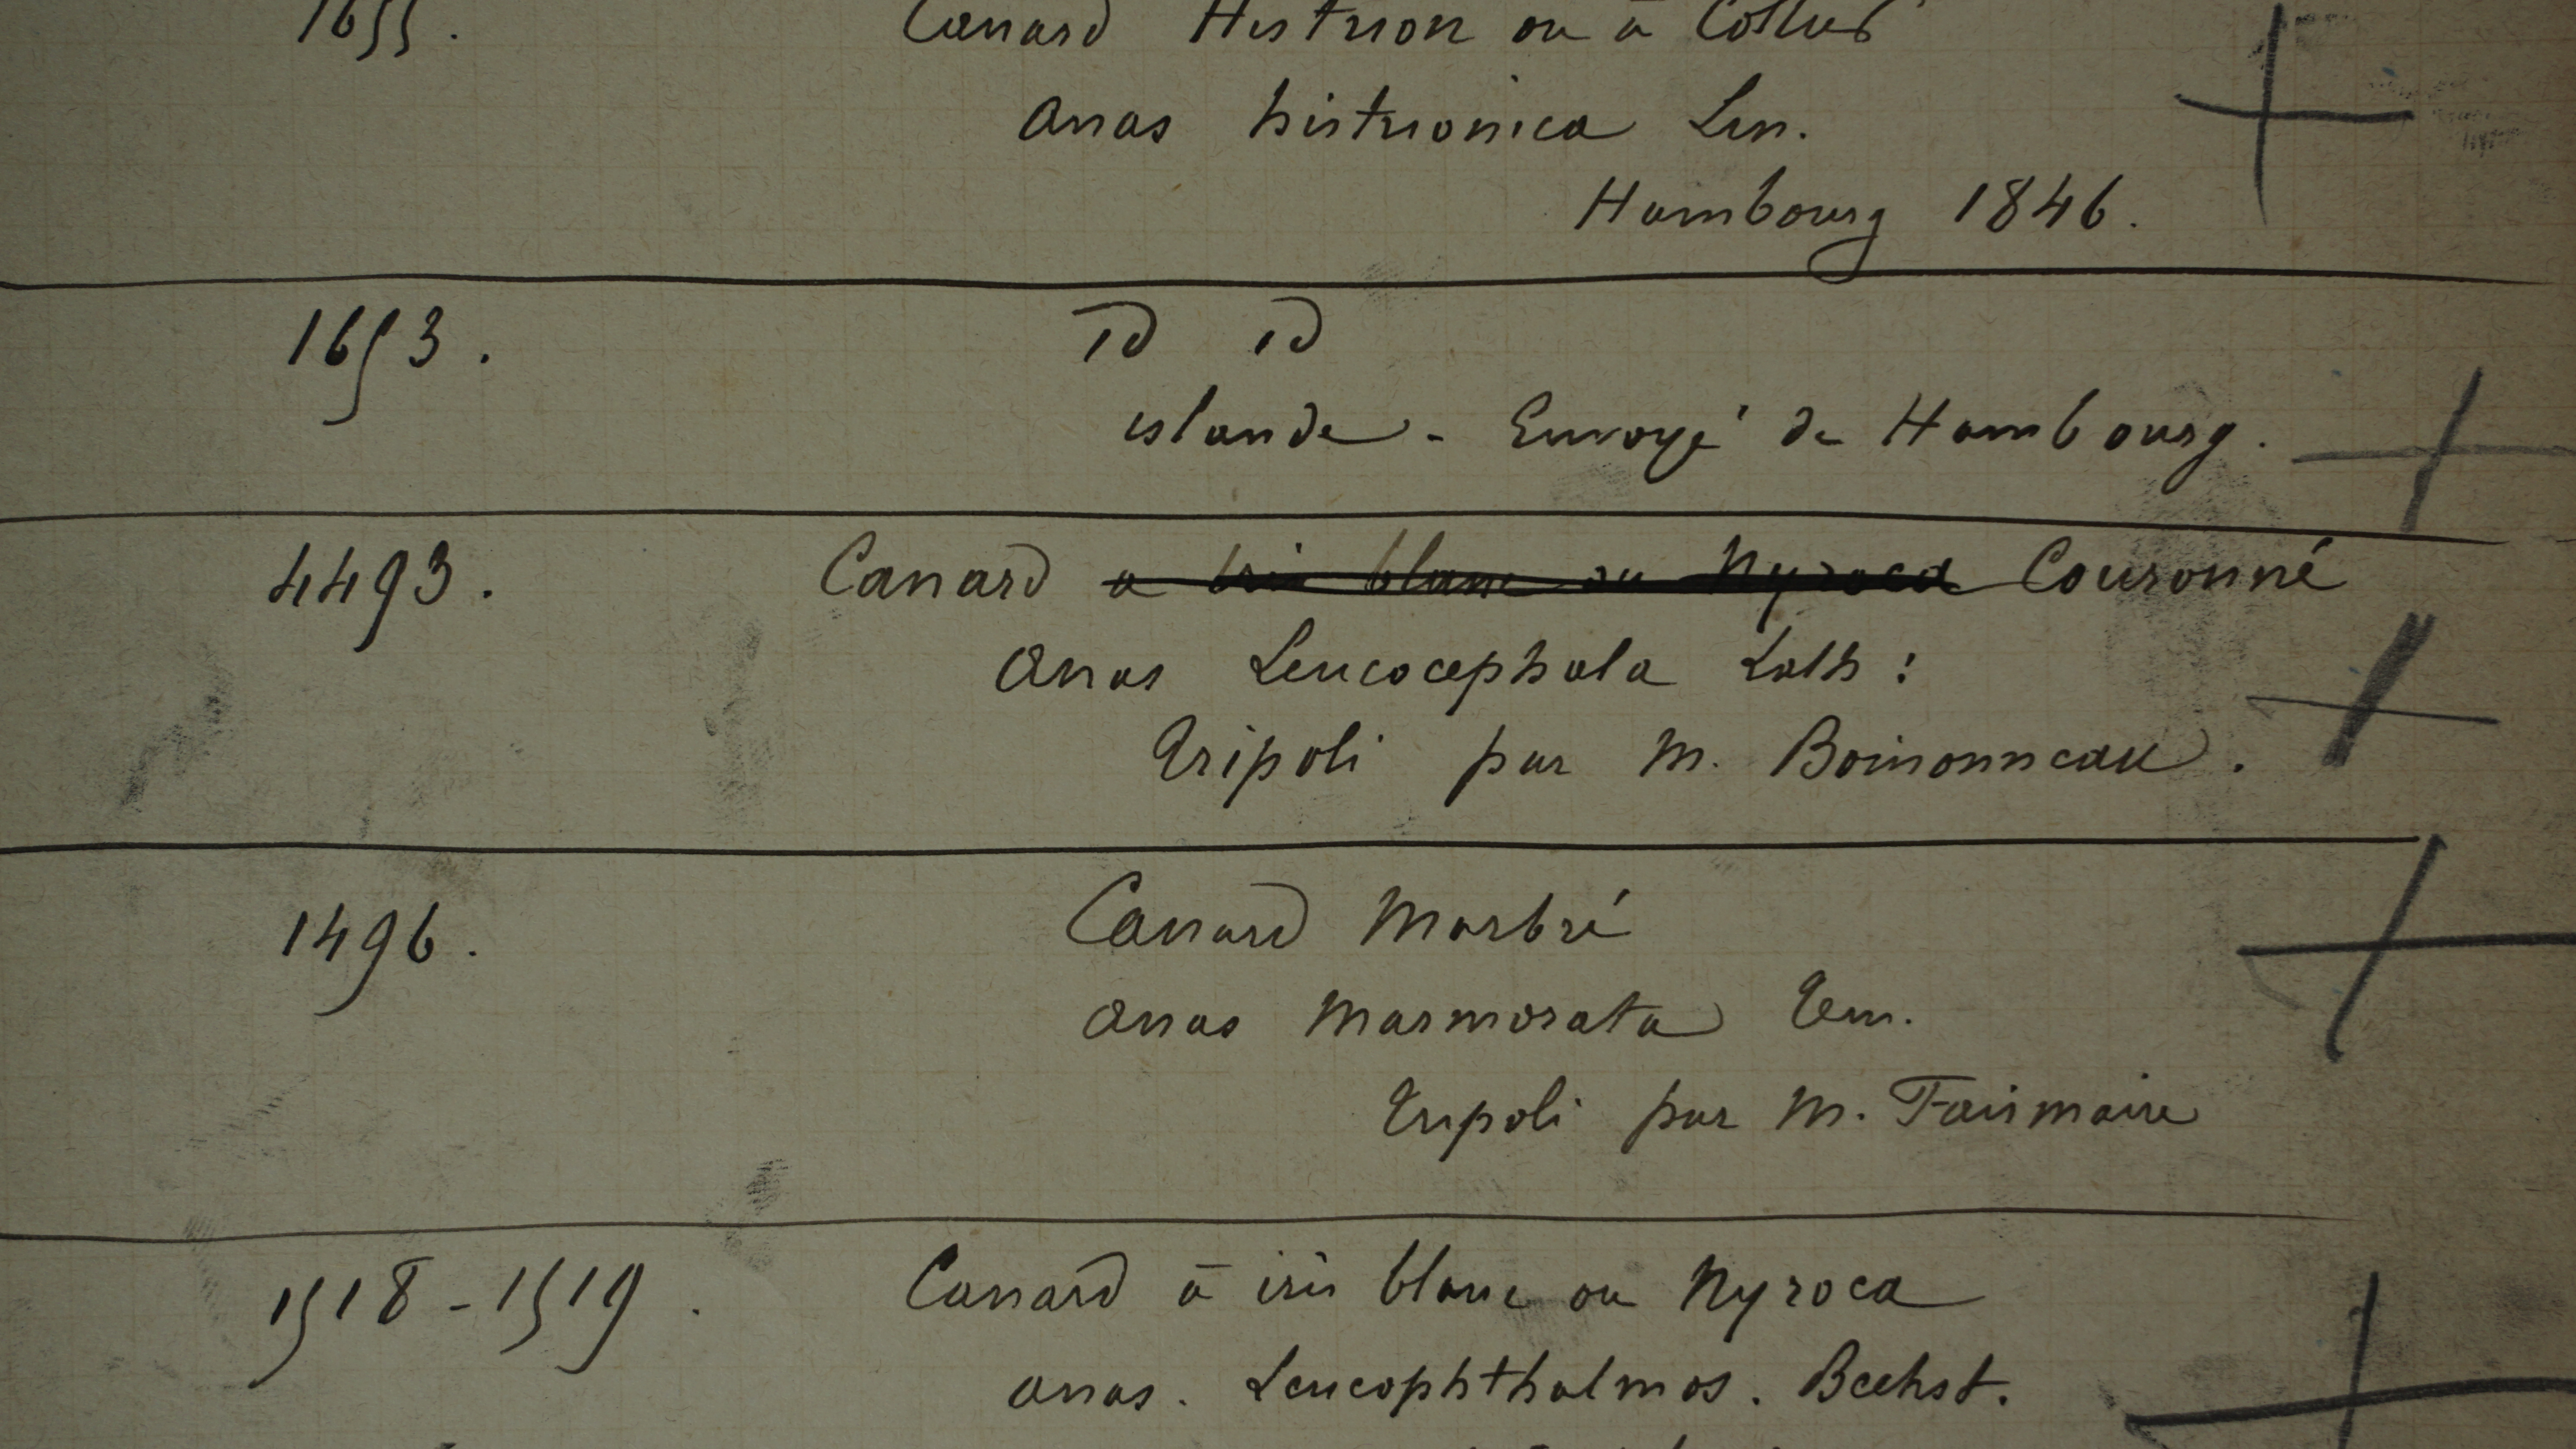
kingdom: Animalia
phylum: Chordata
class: Aves
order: Anseriformes
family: Anatidae
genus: Oxyura
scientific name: Oxyura leucocephala
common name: White-headed duck
